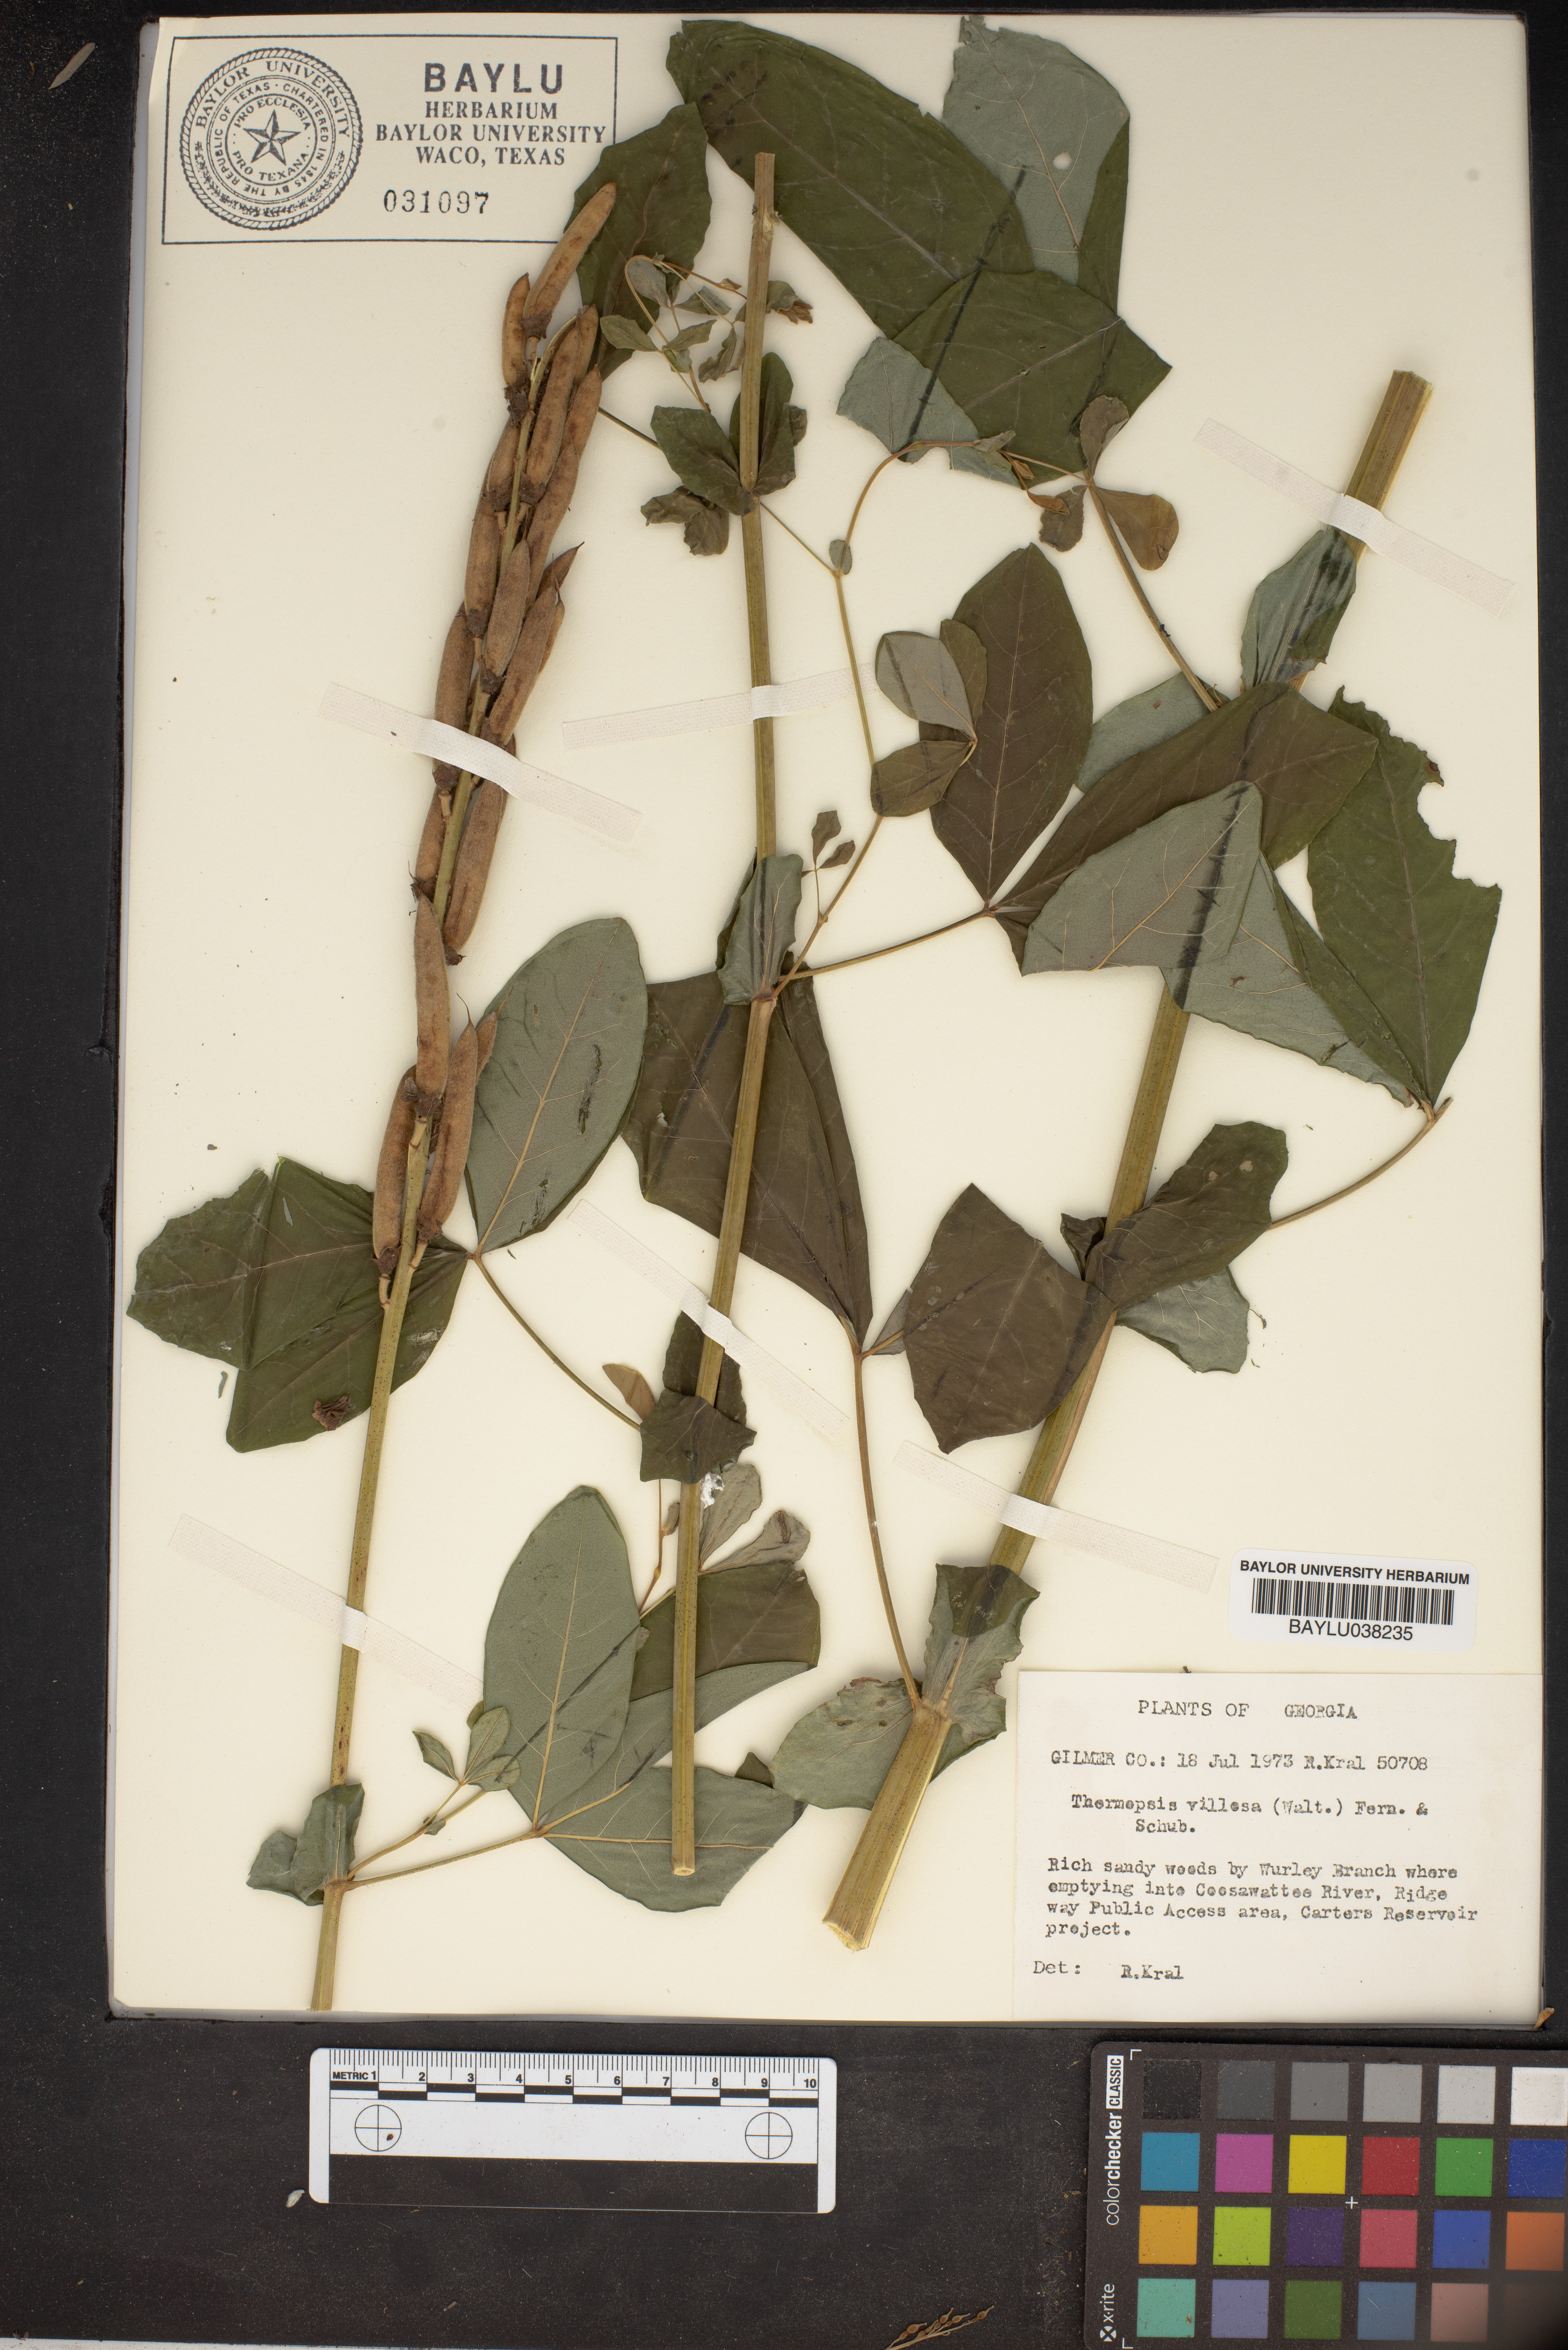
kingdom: Plantae
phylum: Tracheophyta
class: Magnoliopsida
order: Fabales
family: Fabaceae
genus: Thermopsis
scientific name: Thermopsis villosa
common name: Carolina-lupin
